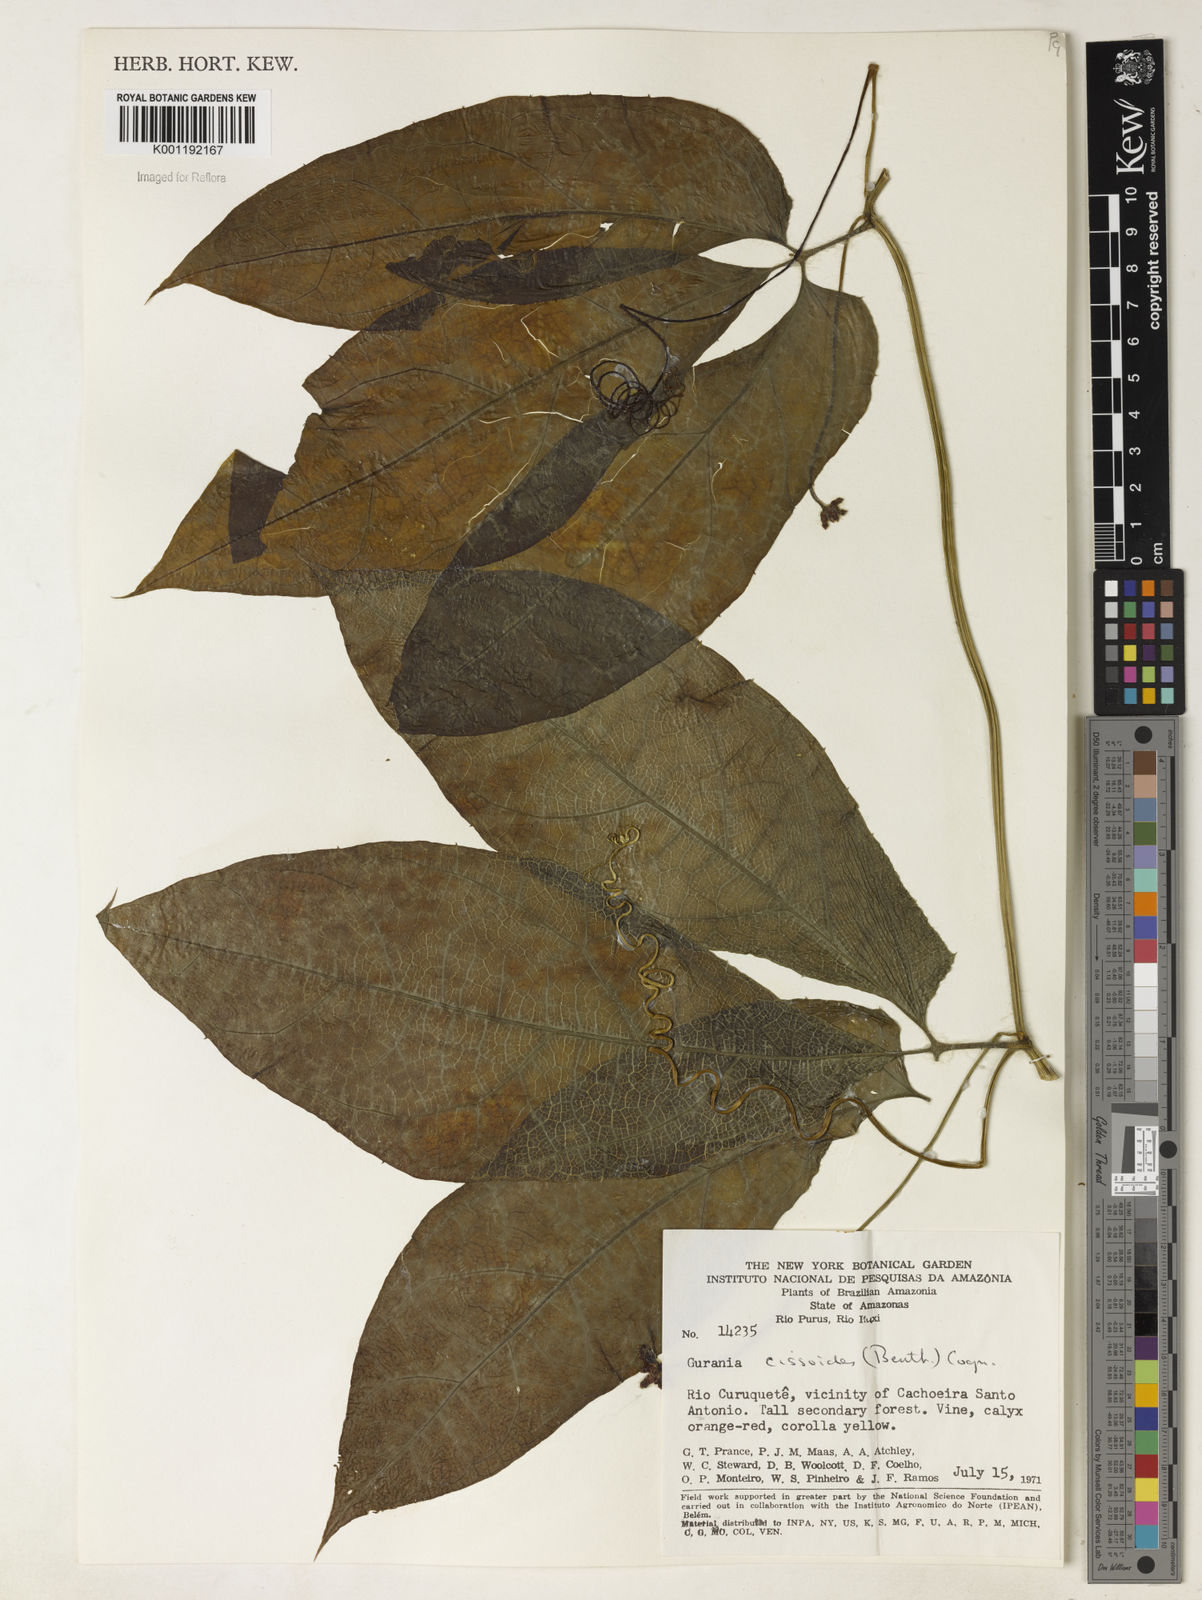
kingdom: Plantae
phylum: Tracheophyta
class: Magnoliopsida
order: Cucurbitales
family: Cucurbitaceae
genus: Gurania
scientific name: Gurania bignoniacea
